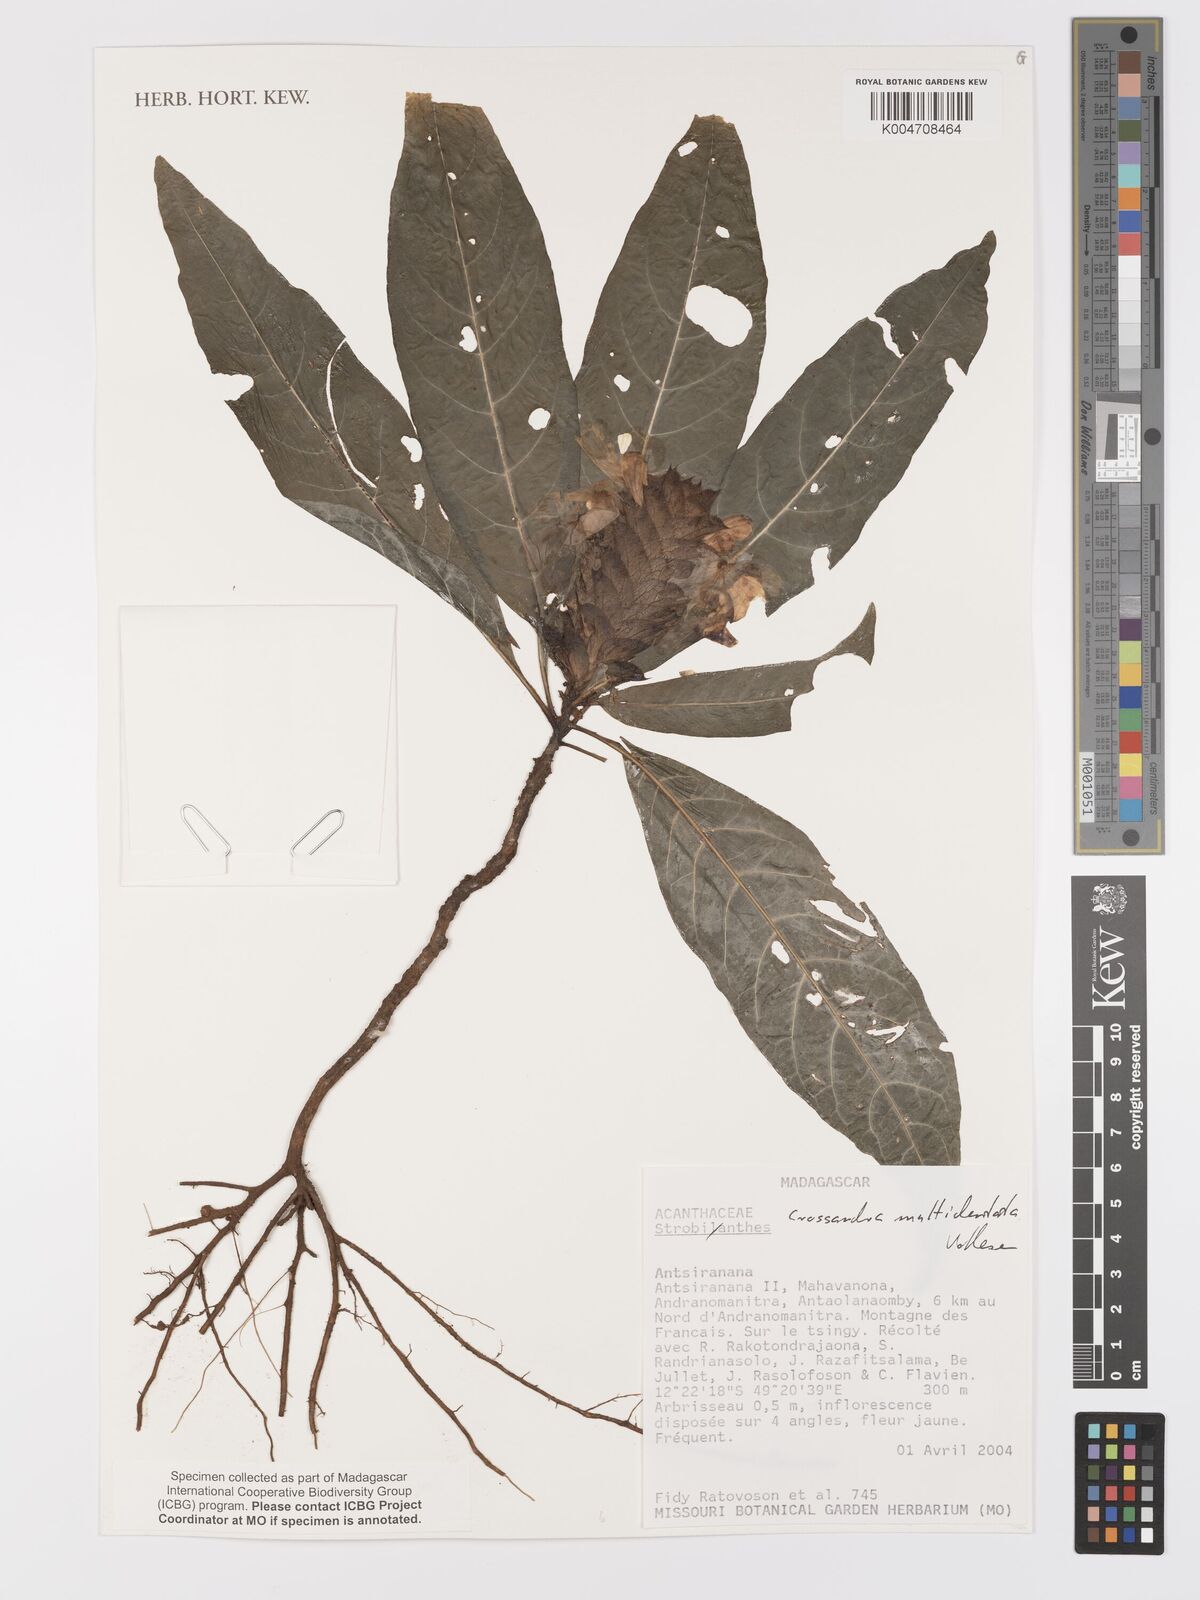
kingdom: Plantae
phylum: Tracheophyta
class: Magnoliopsida
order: Lamiales
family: Acanthaceae
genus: Crossandra
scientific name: Crossandra multidentata
